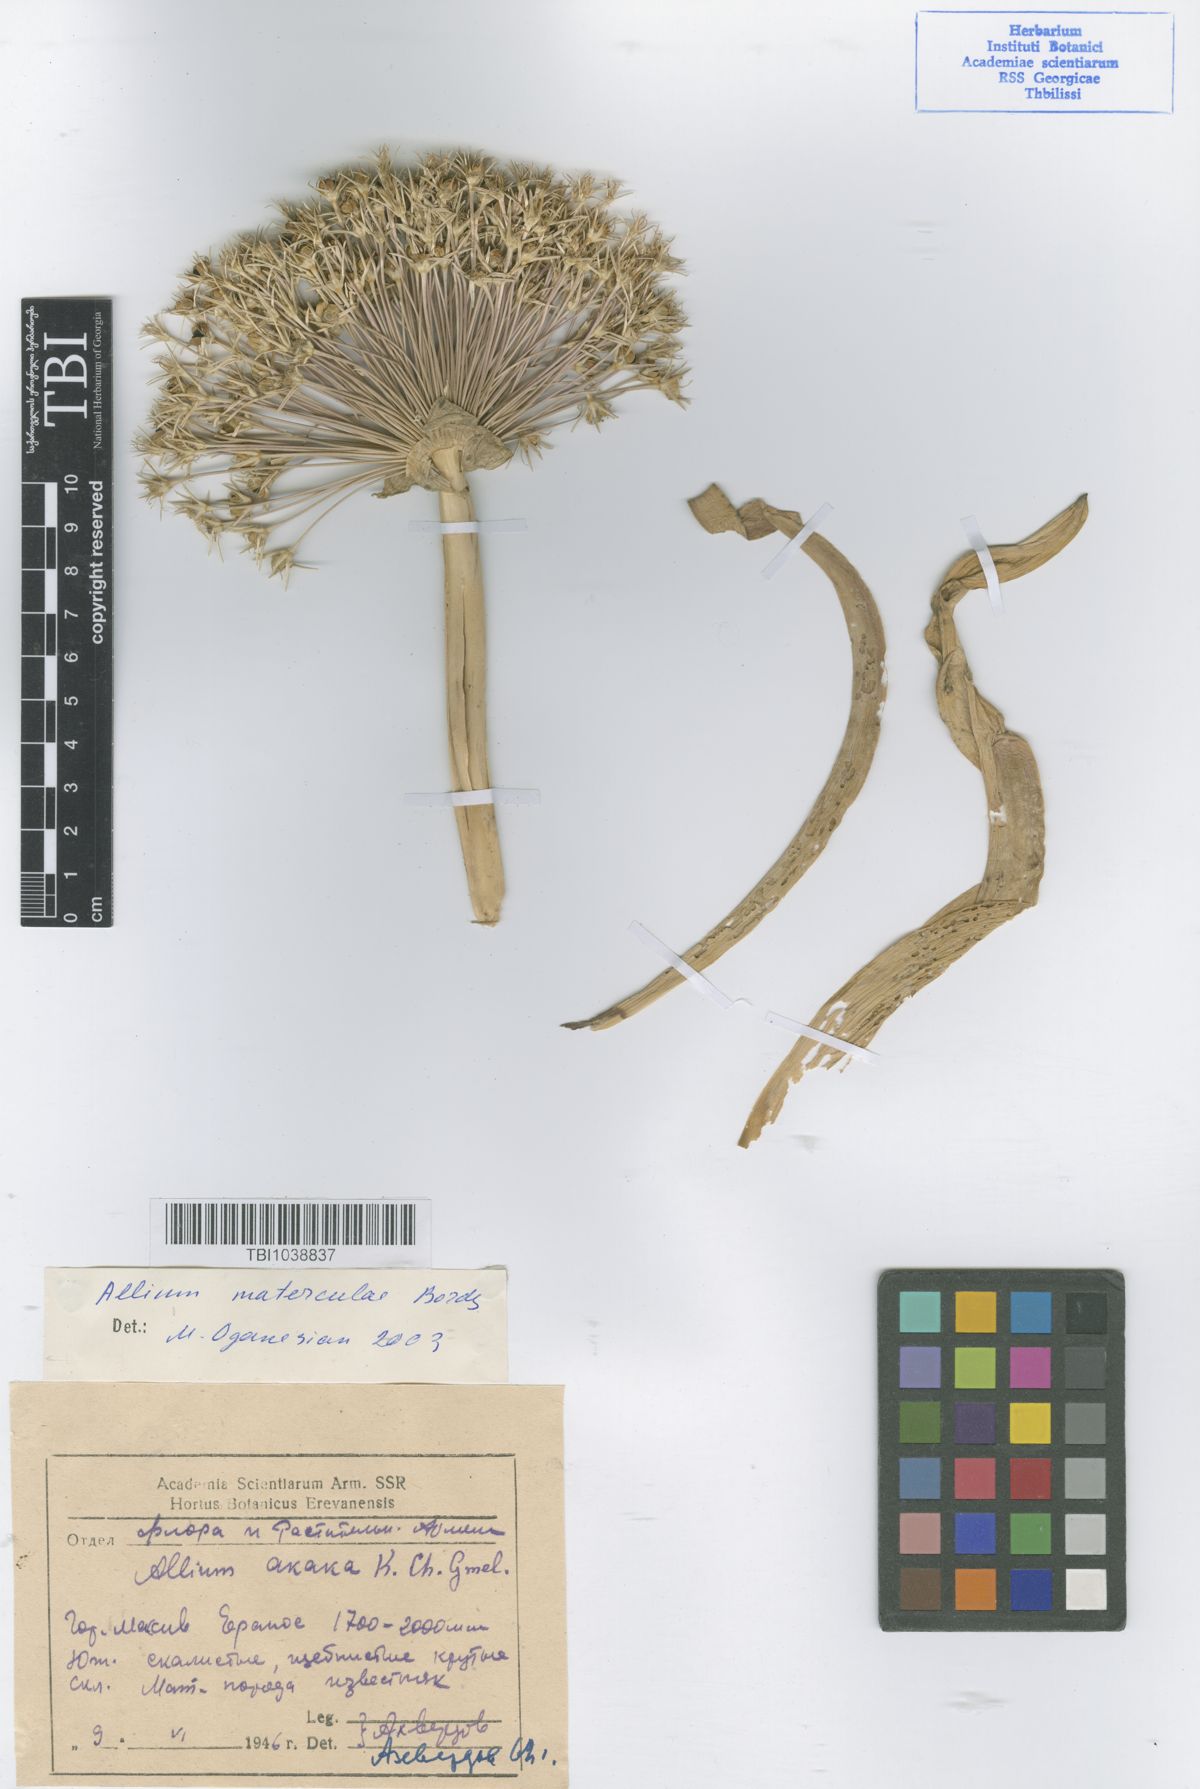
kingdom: Plantae
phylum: Tracheophyta
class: Liliopsida
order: Asparagales
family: Amaryllidaceae
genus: Allium
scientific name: Allium materculae
